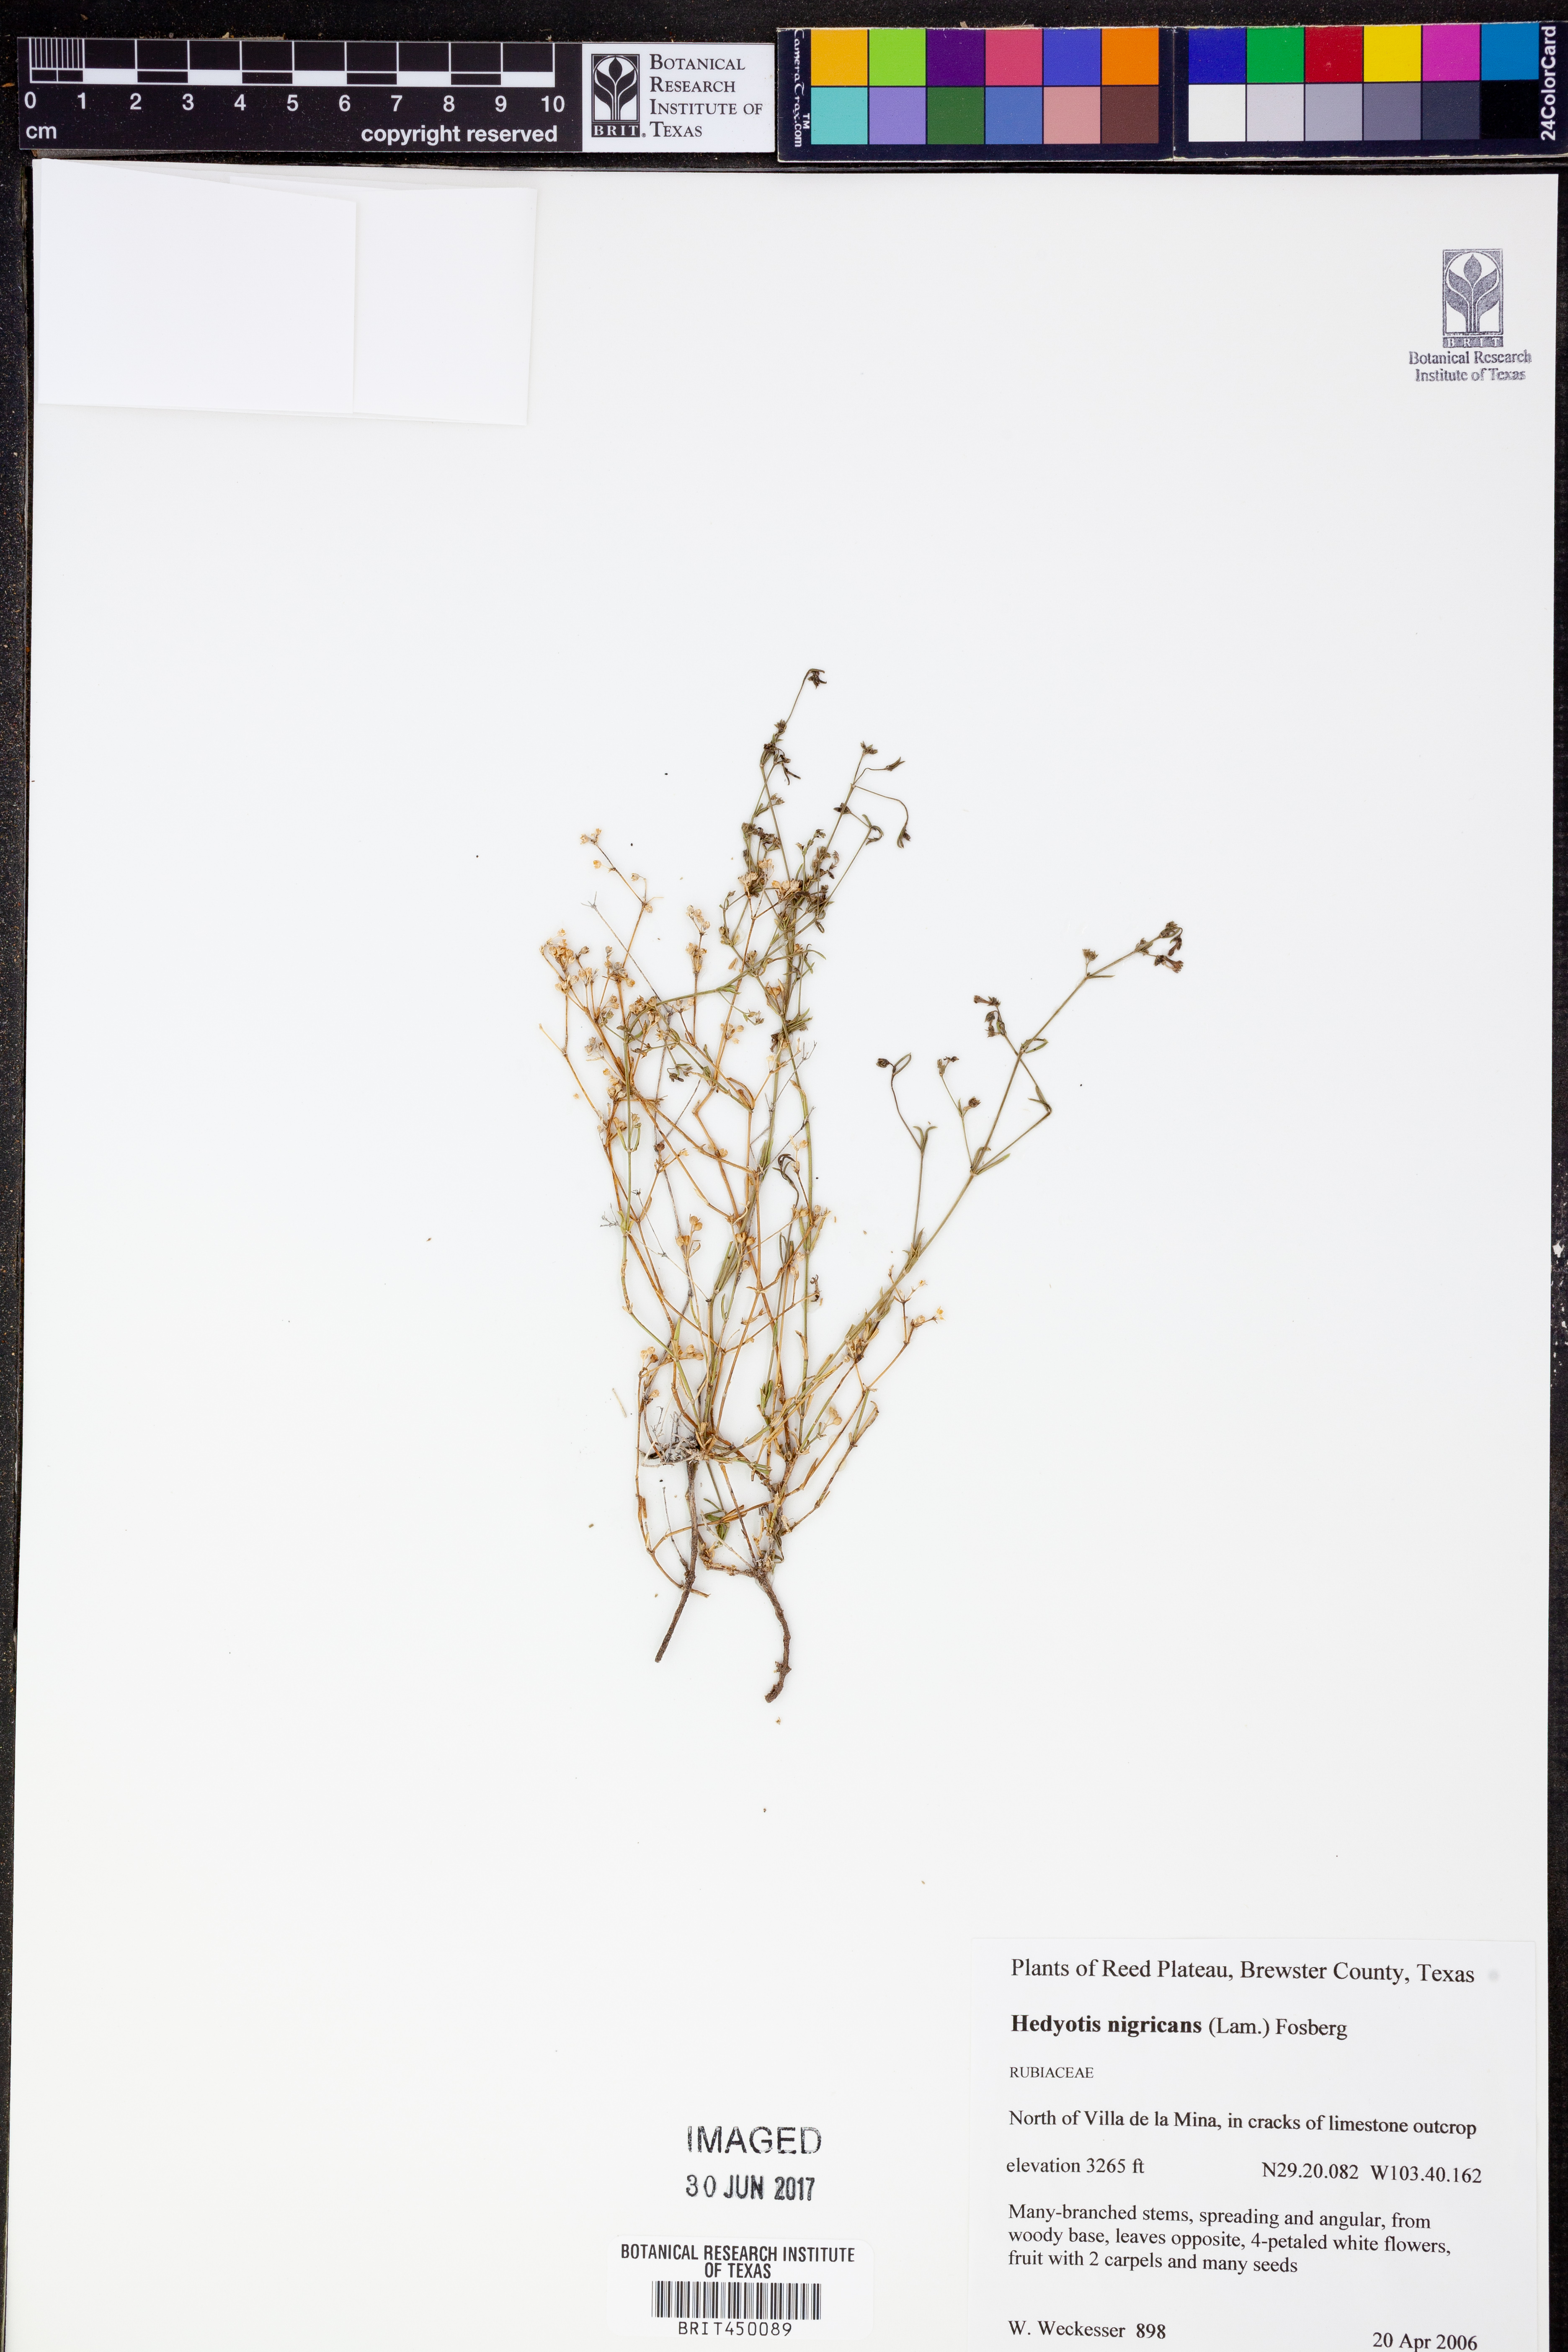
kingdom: Plantae
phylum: Tracheophyta
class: Magnoliopsida
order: Gentianales
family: Rubiaceae
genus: Stenaria
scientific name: Stenaria nigricans
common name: Diamondflowers
